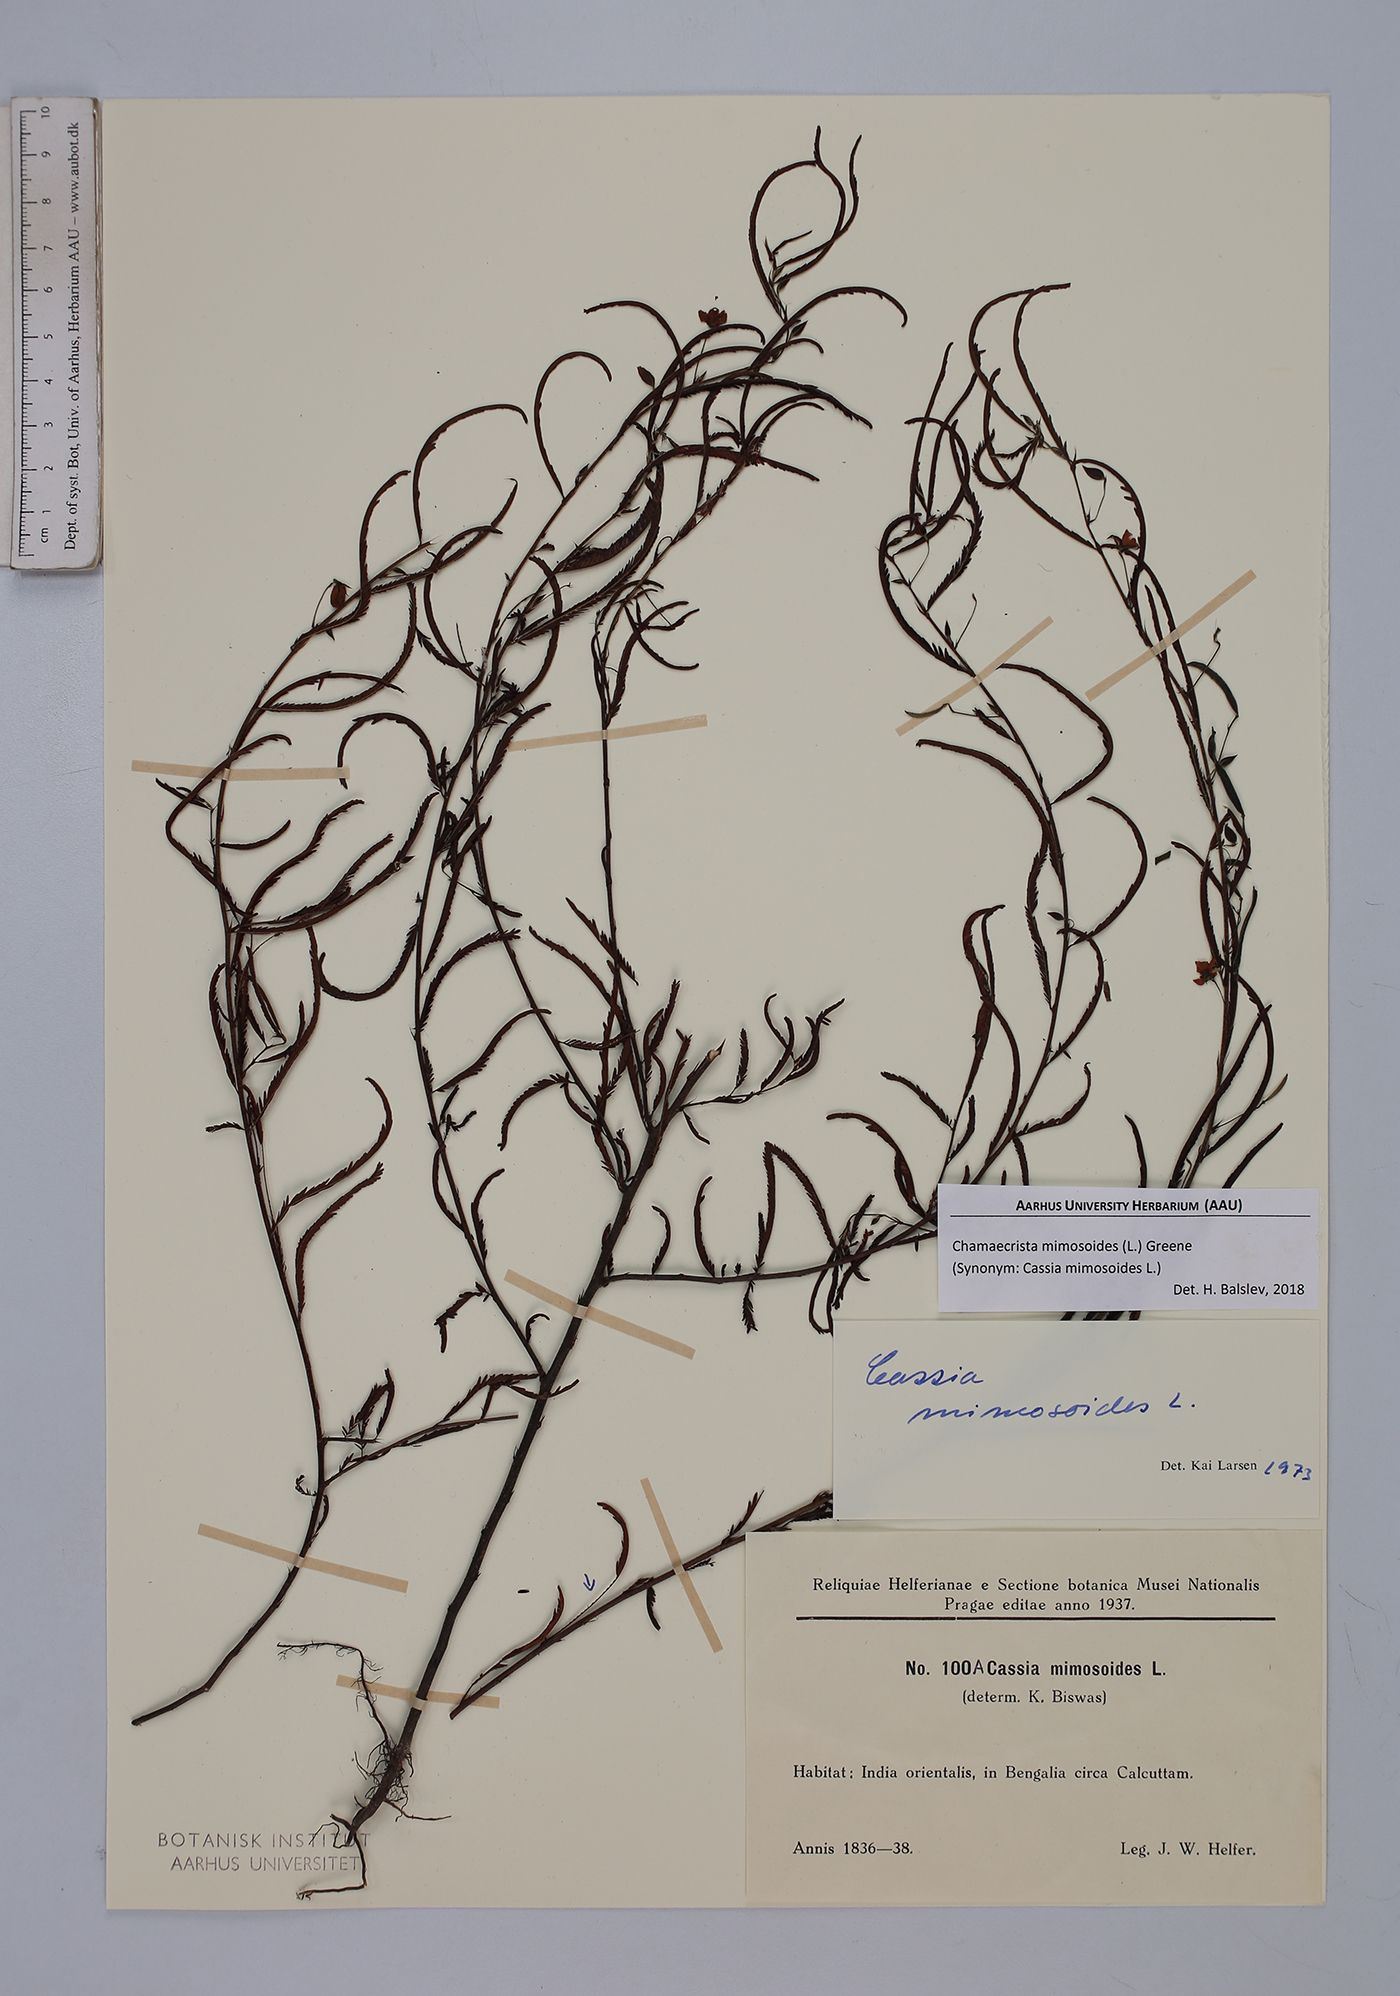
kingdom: Plantae
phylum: Tracheophyta
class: Magnoliopsida
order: Fabales
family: Fabaceae
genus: Chamaecrista
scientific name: Chamaecrista mimosoides
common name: Fish-bone cassia
